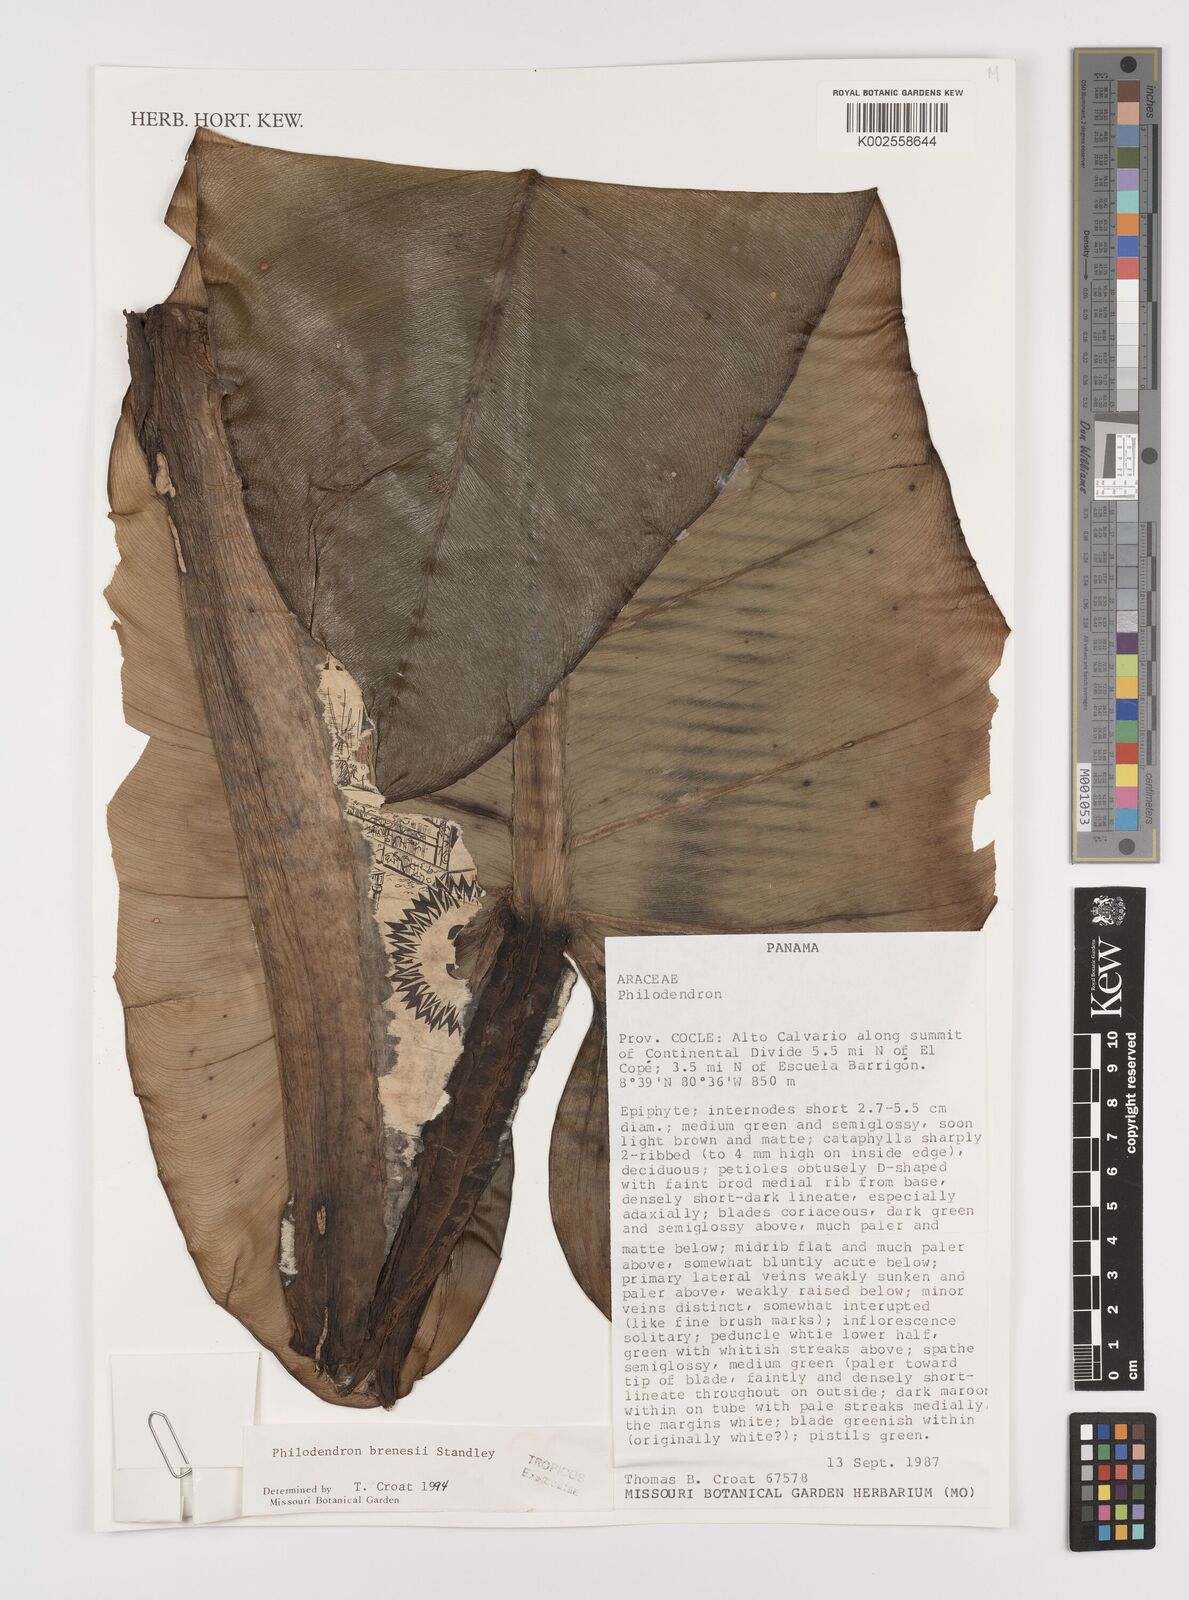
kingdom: Plantae
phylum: Tracheophyta
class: Liliopsida
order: Alismatales
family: Araceae
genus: Philodendron
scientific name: Philodendron brenesii
